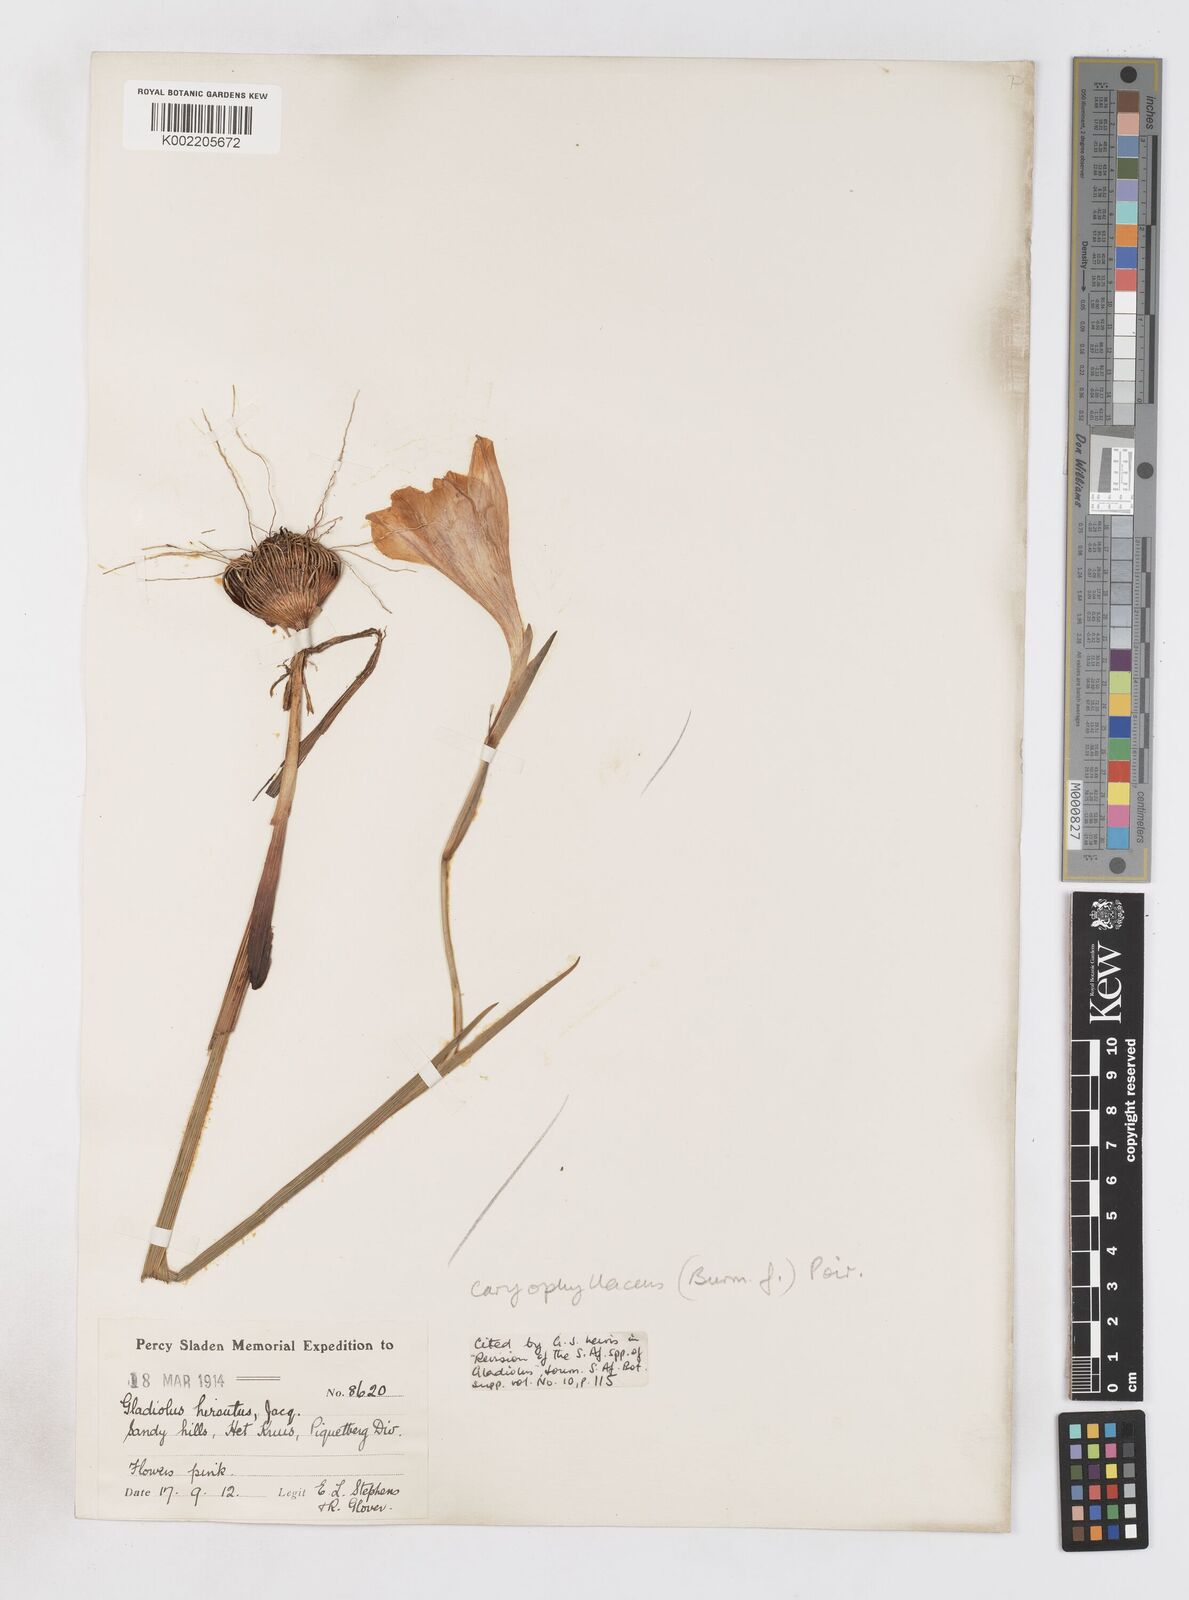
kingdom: Plantae
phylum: Tracheophyta
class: Liliopsida
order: Asparagales
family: Iridaceae
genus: Gladiolus
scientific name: Gladiolus caryophyllaceus
